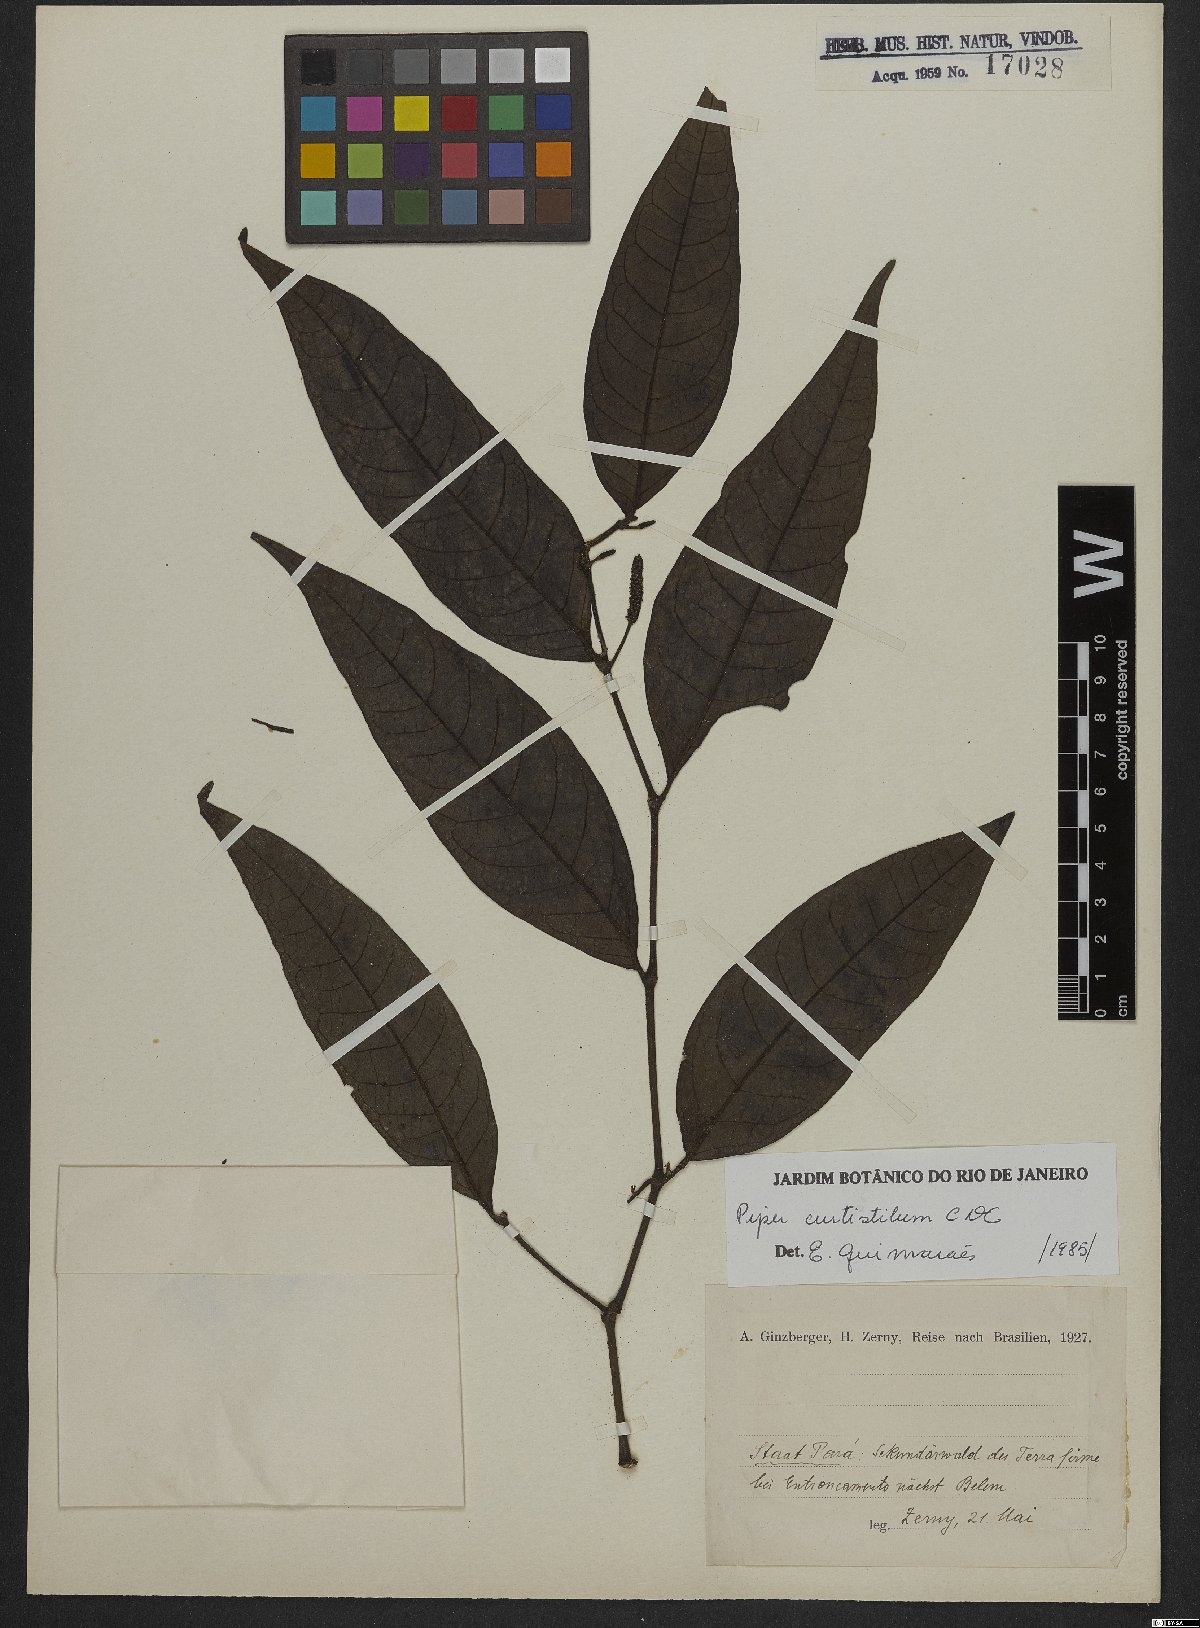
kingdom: Plantae
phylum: Tracheophyta
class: Magnoliopsida
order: Piperales
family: Piperaceae
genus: Piper
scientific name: Piper curtistilum
